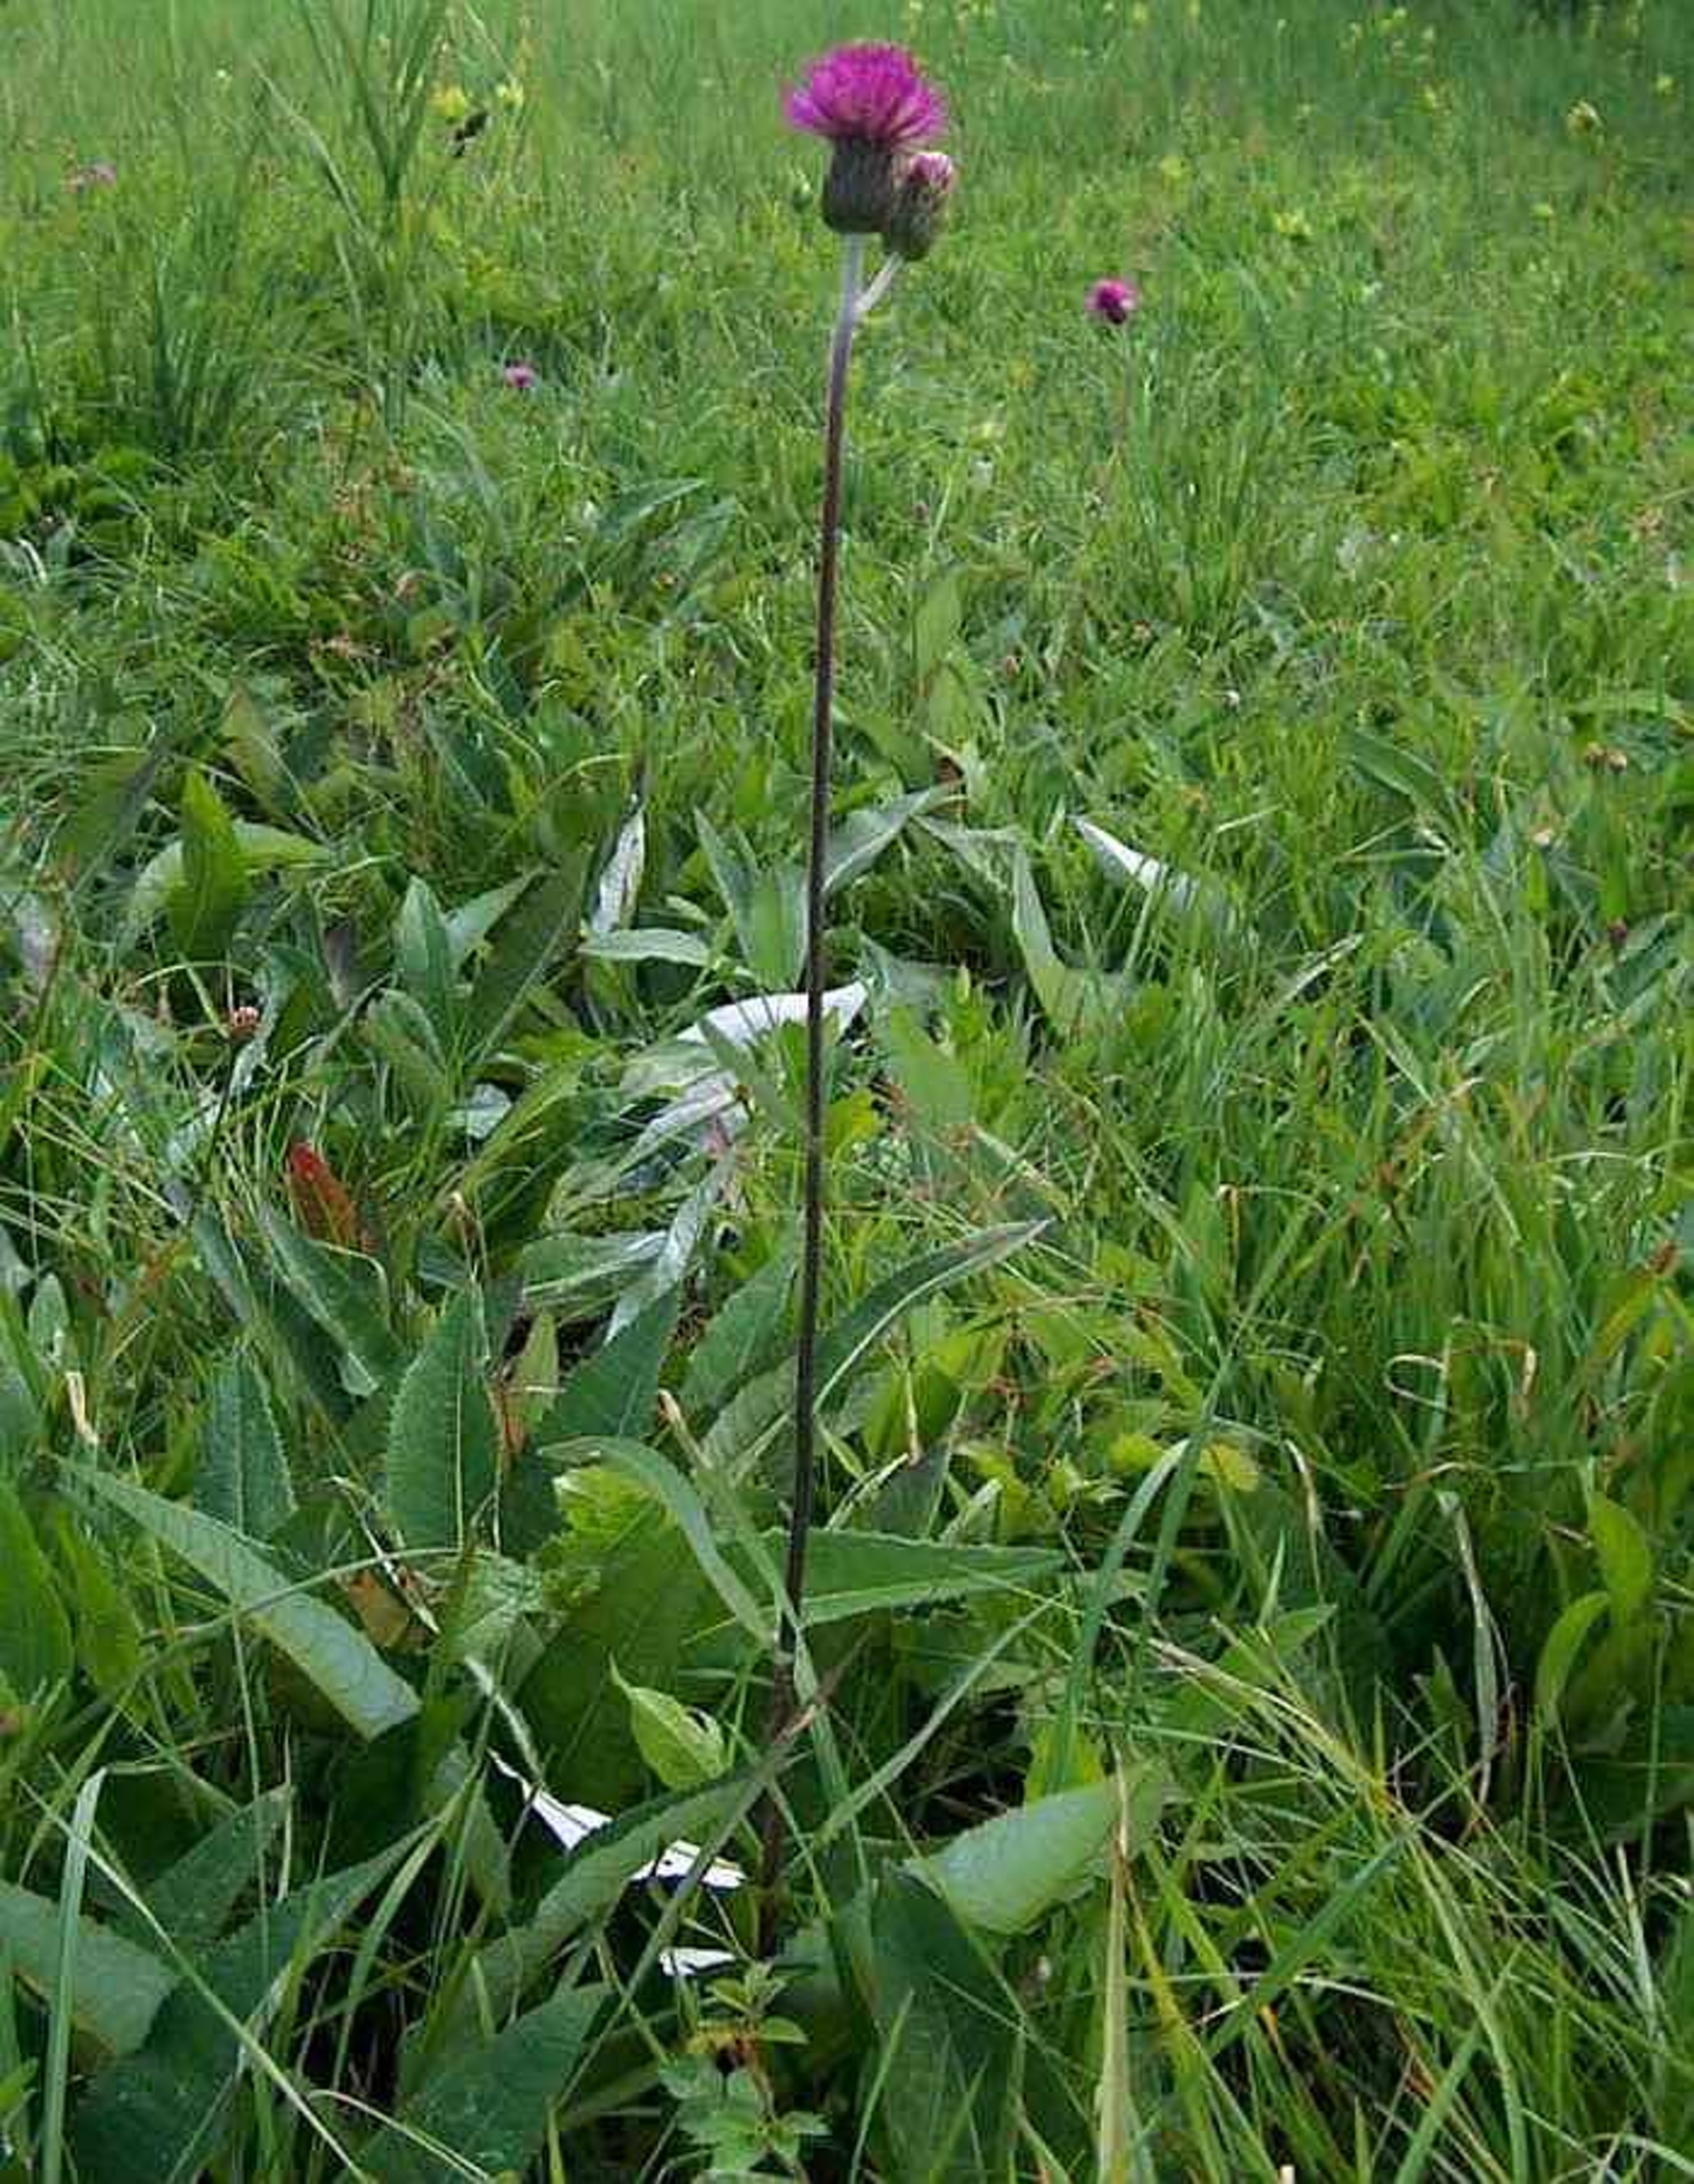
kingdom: Plantae
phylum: Tracheophyta
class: Magnoliopsida
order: Asterales
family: Asteraceae
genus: Cirsium
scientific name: Cirsium heterophyllum
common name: Forskelligbladet tidsel
